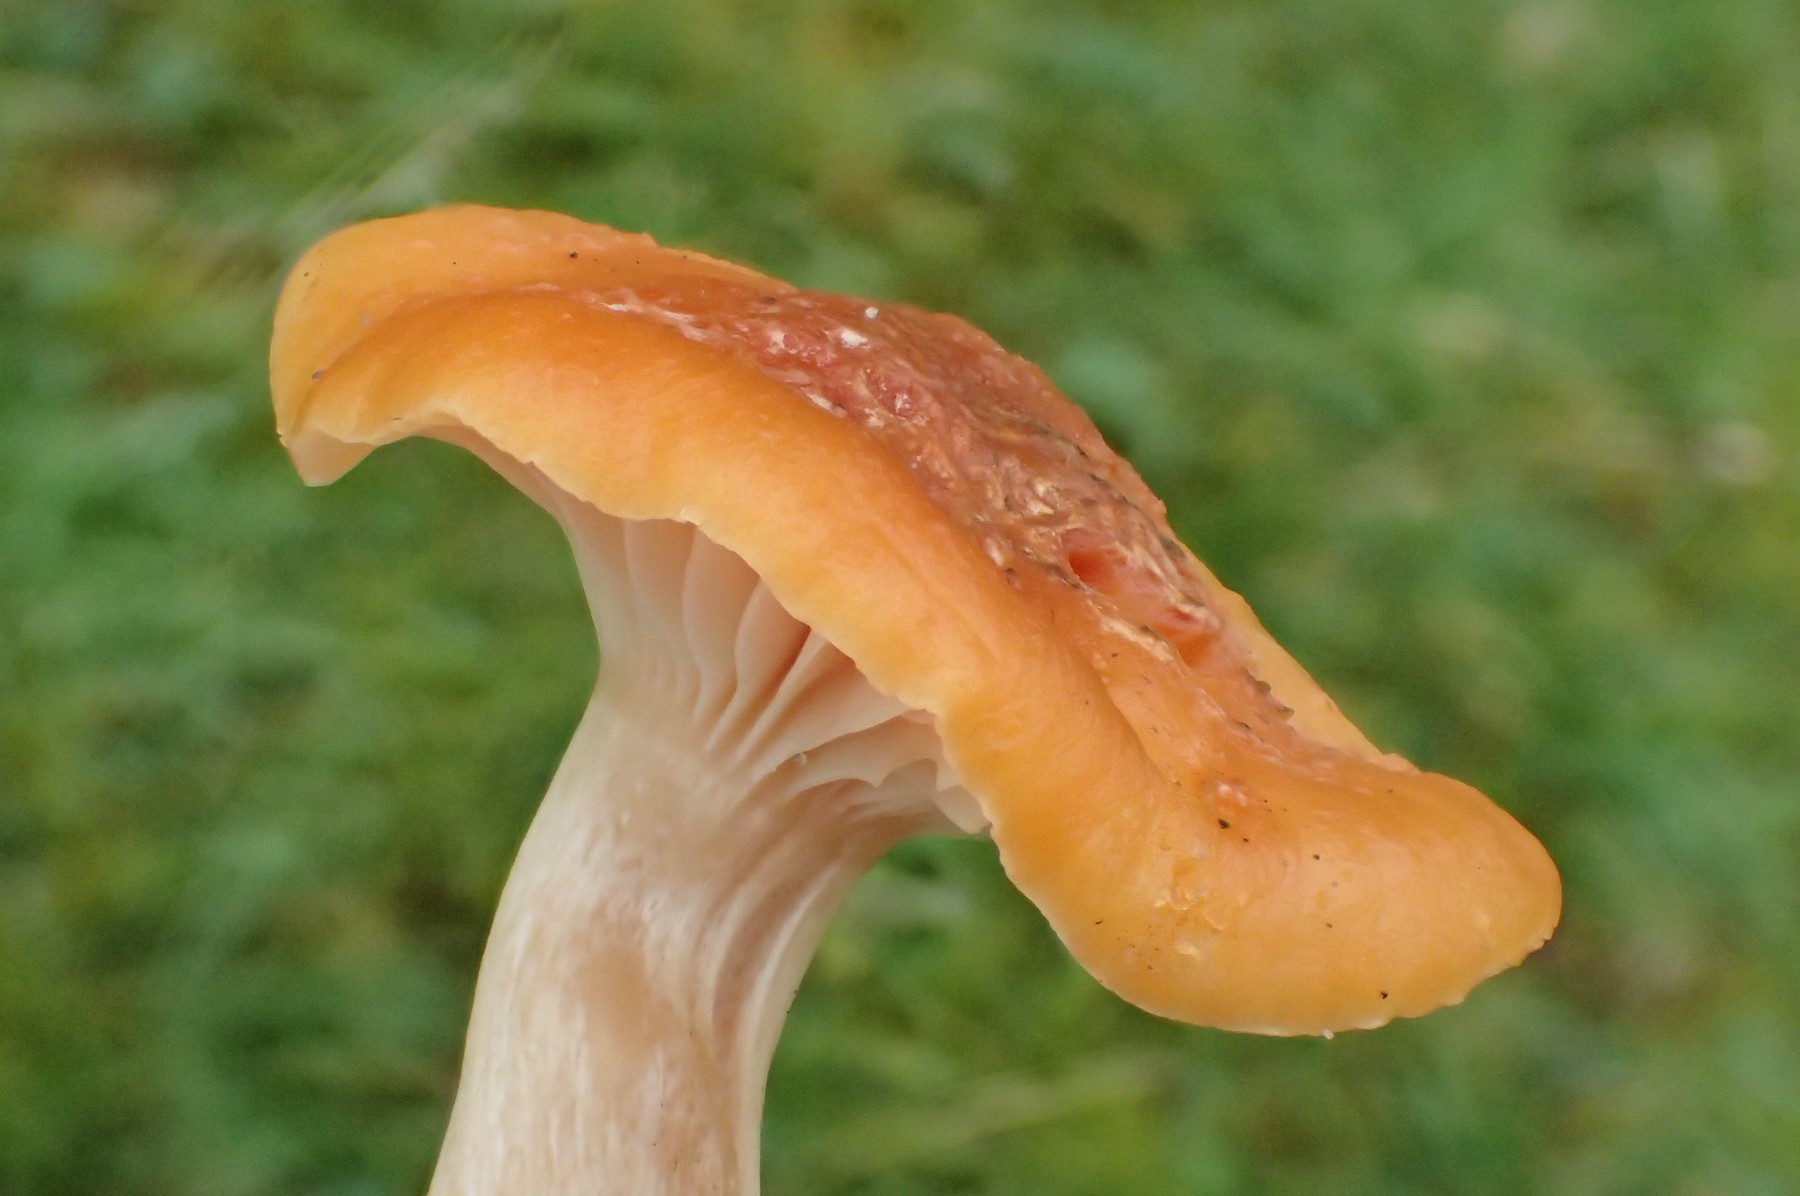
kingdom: Fungi
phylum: Basidiomycota
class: Agaricomycetes
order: Agaricales
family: Hygrophoraceae
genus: Cuphophyllus
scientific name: Cuphophyllus pratensis
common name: eng-vokshat
